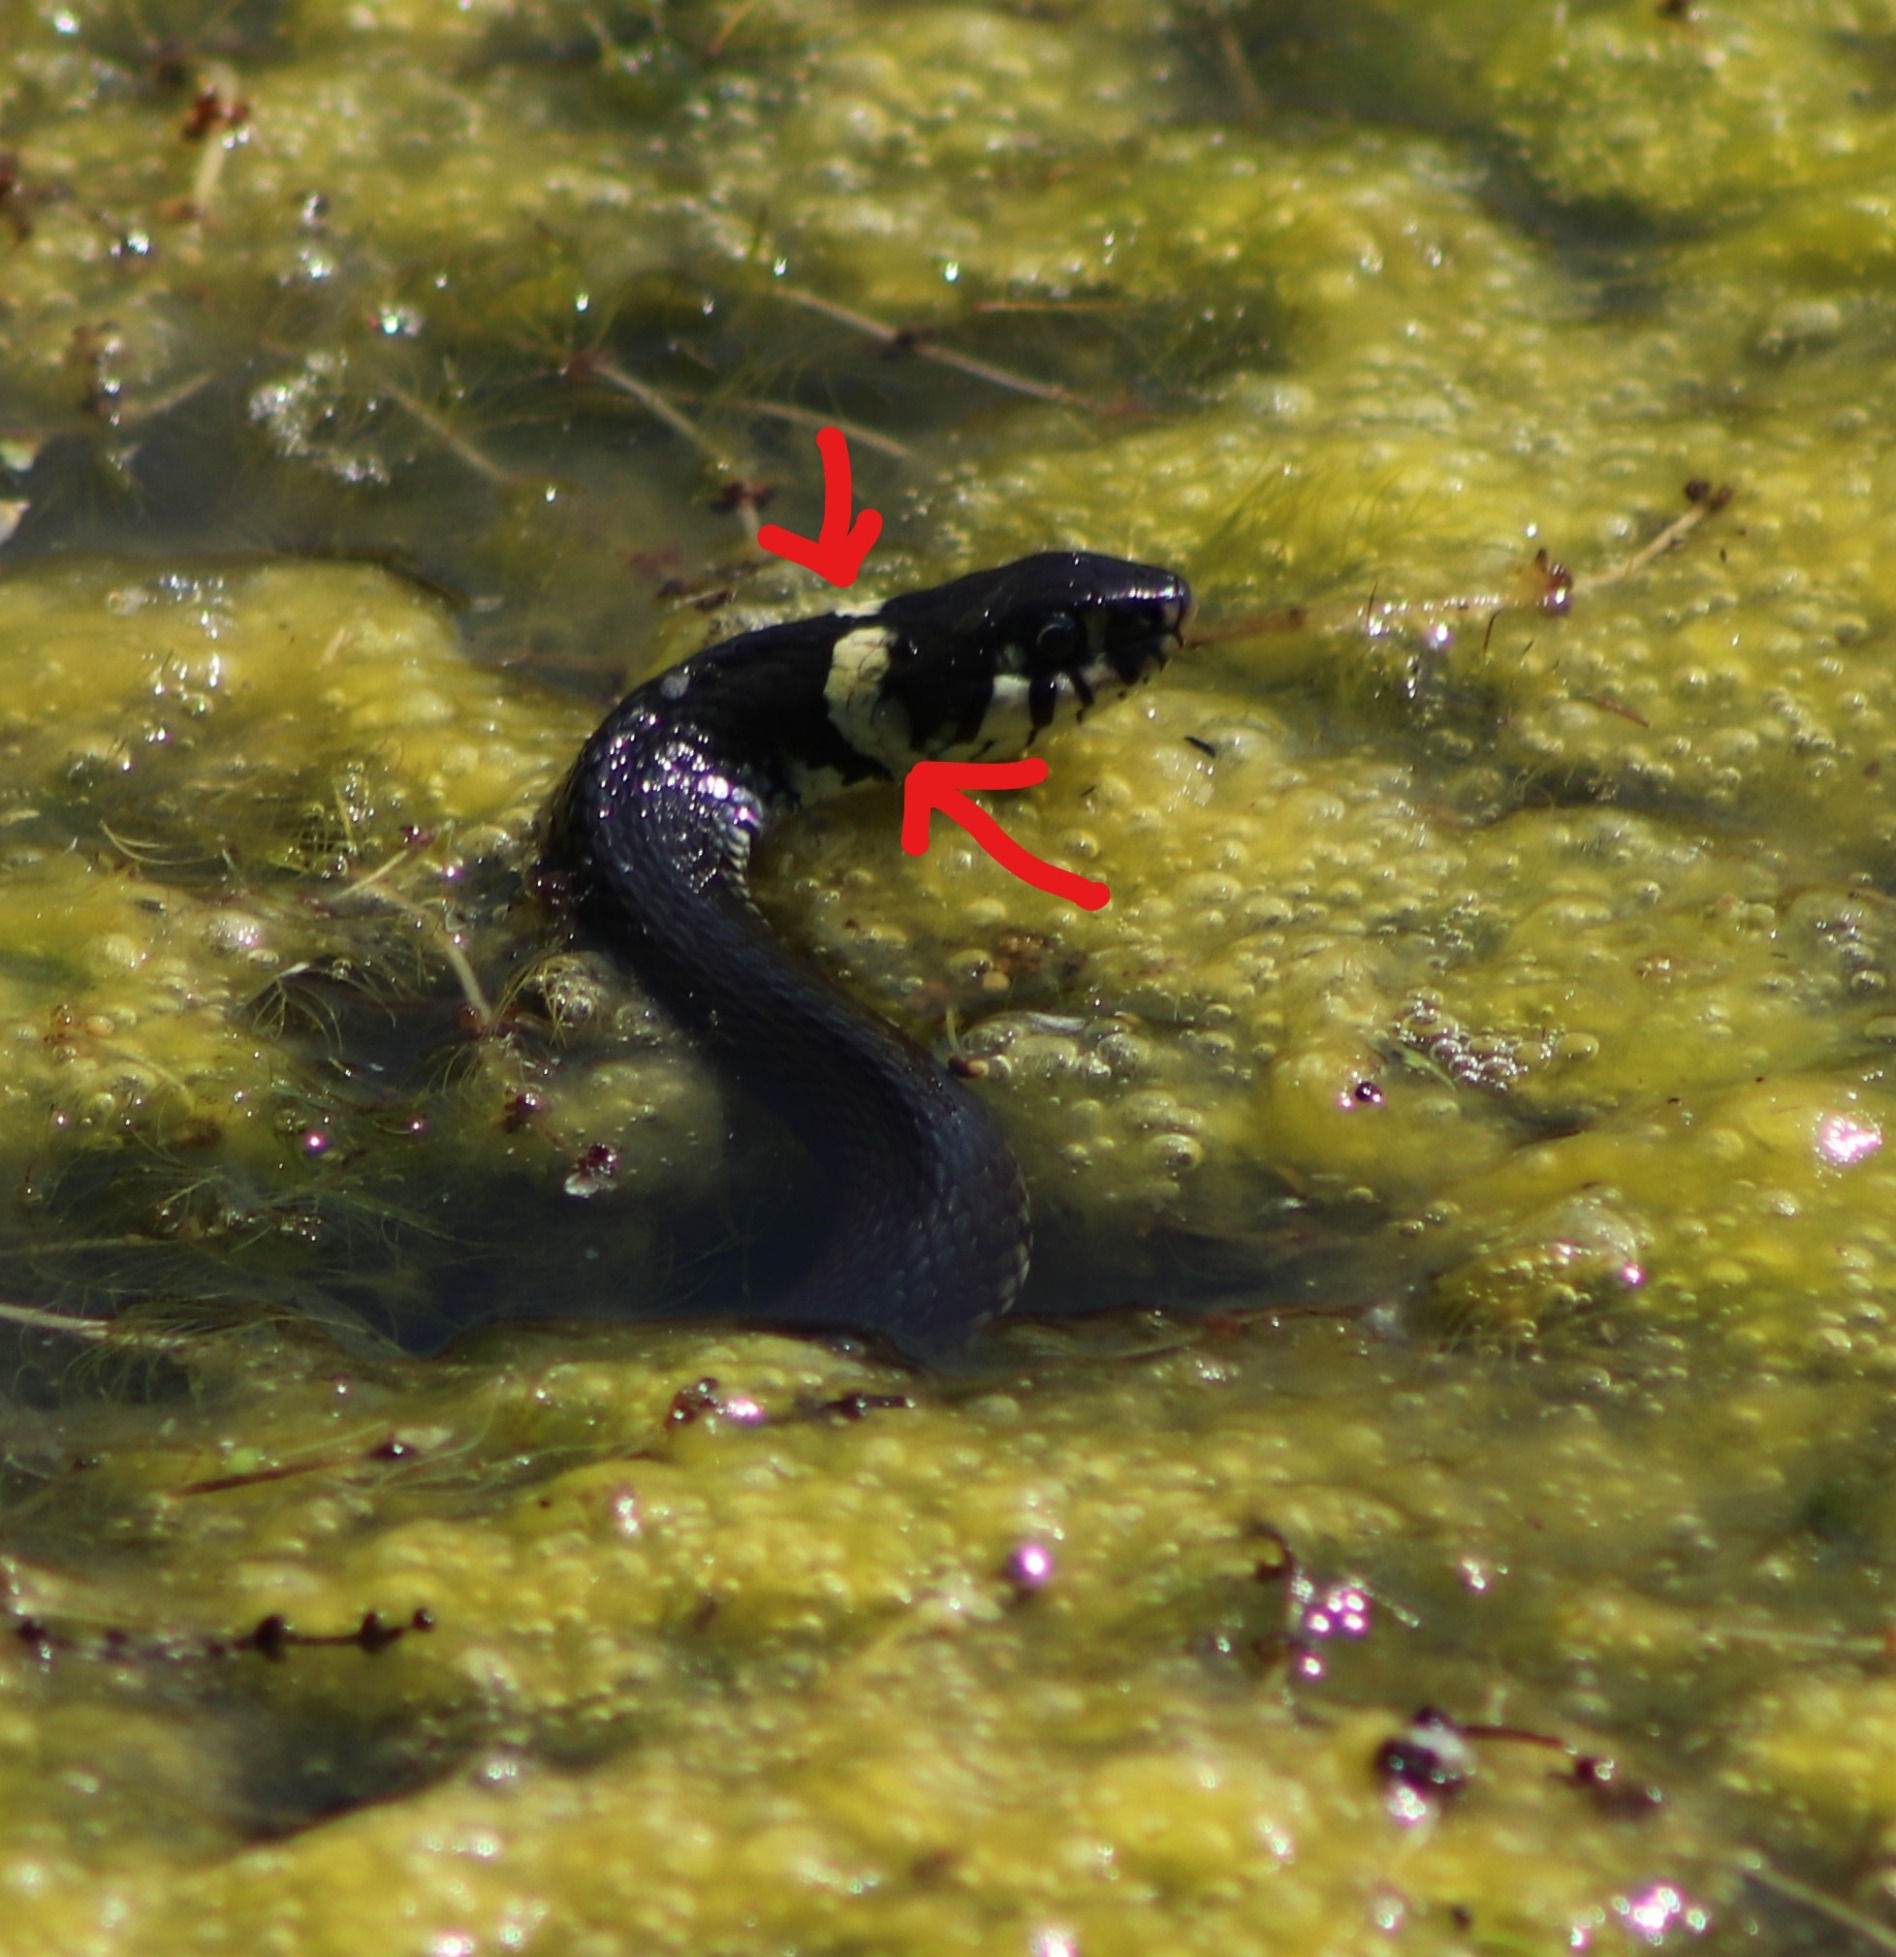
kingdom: Animalia
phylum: Chordata
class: Squamata
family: Colubridae
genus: Natrix
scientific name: Natrix natrix
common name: Snog
